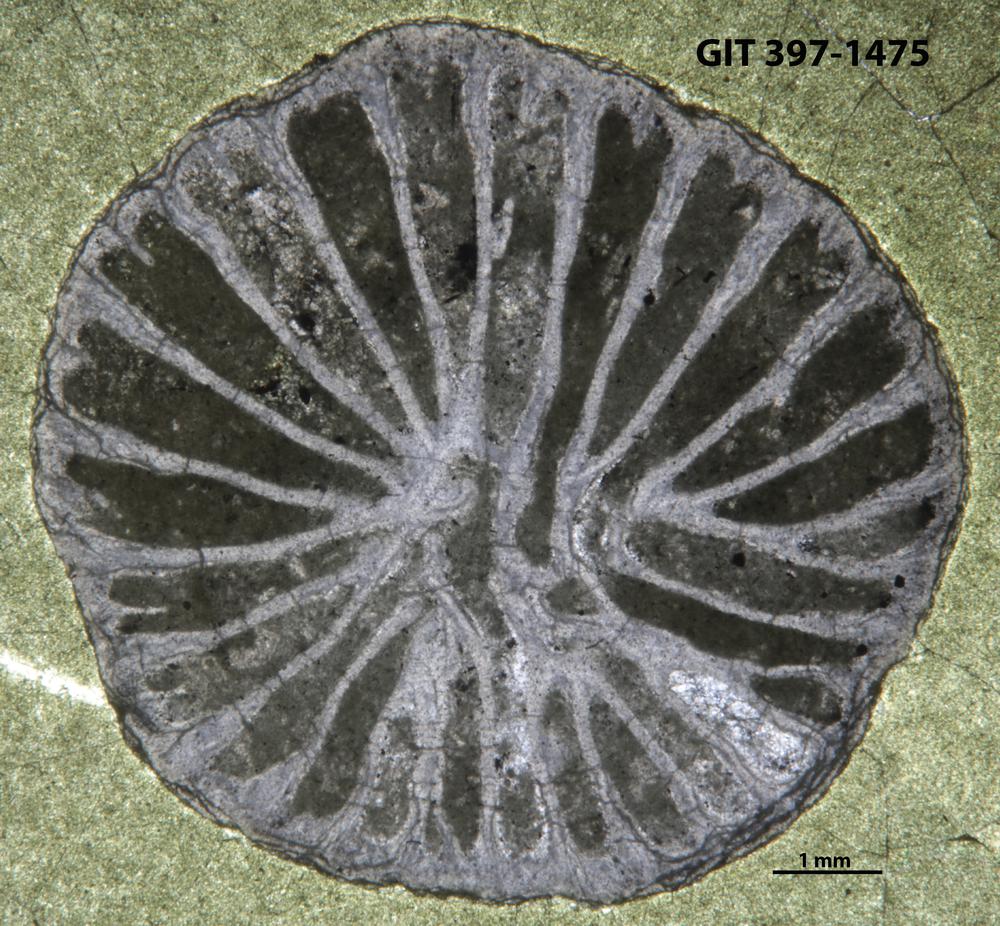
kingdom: Animalia
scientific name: Animalia
